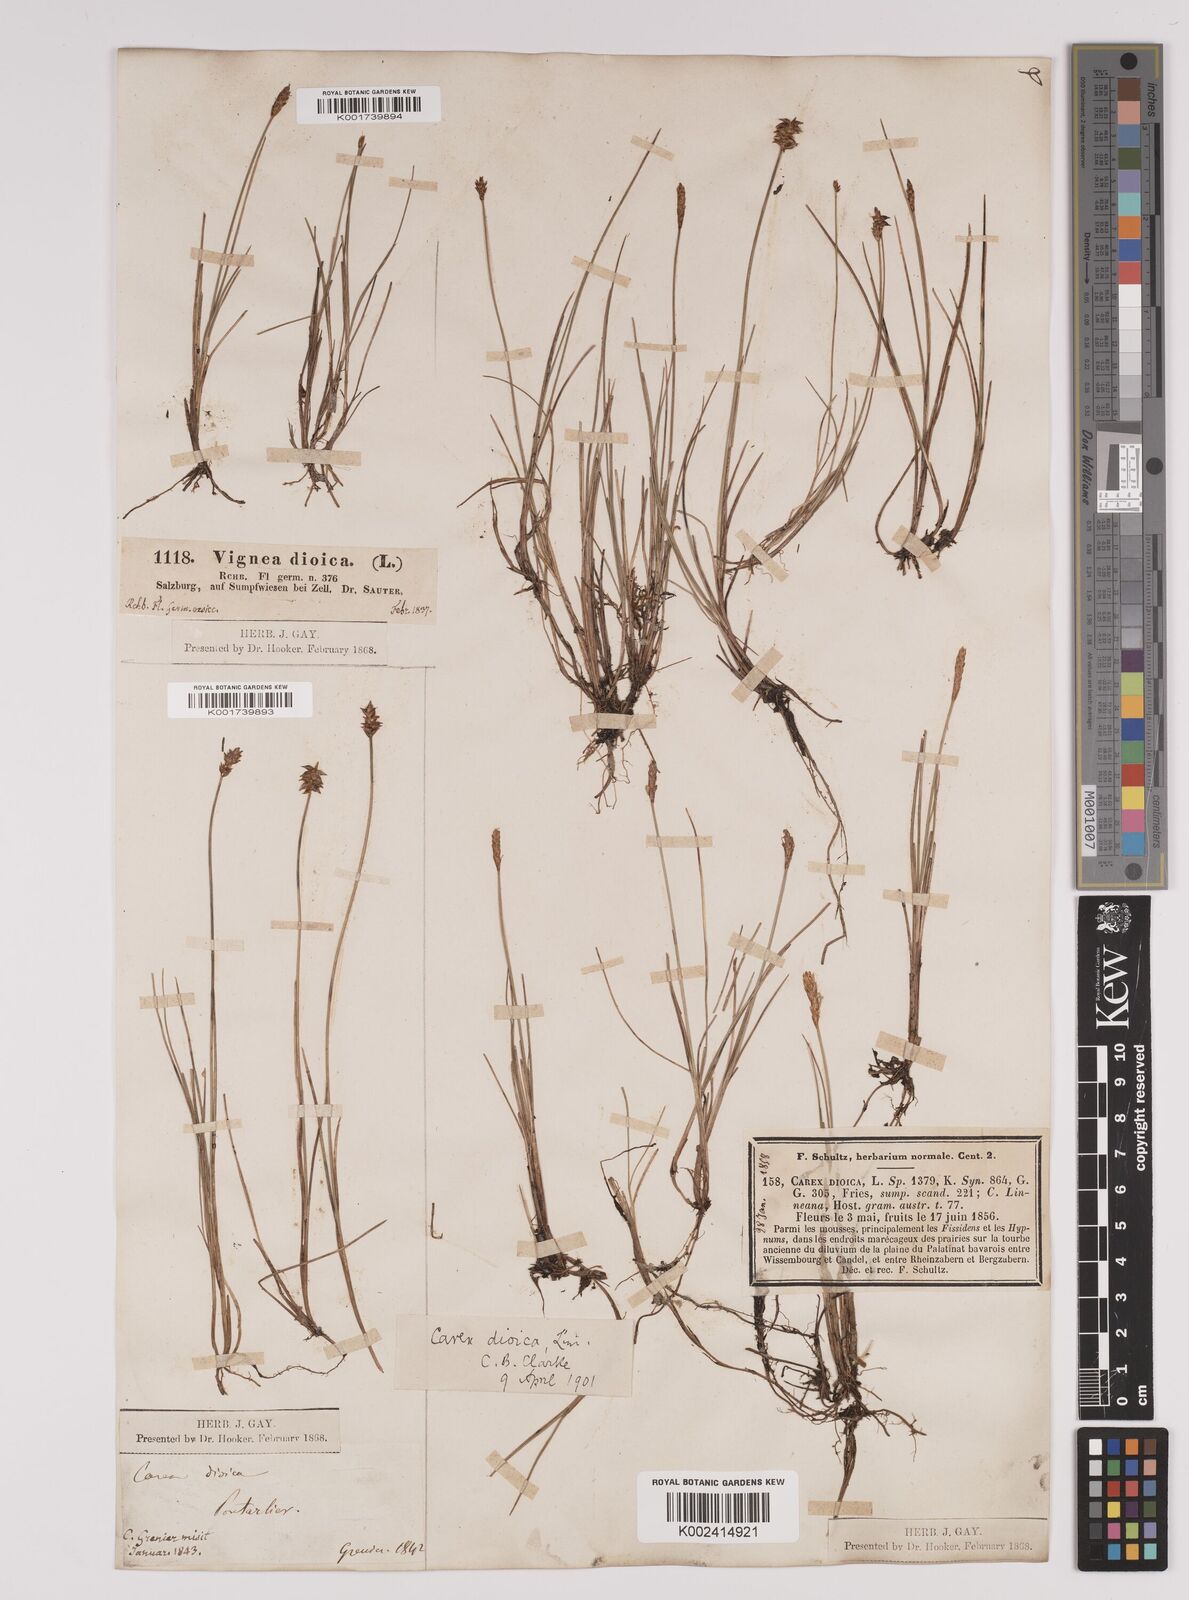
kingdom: Plantae
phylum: Tracheophyta
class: Liliopsida
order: Poales
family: Cyperaceae
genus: Carex
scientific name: Carex dioica
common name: Dioecious sedge
